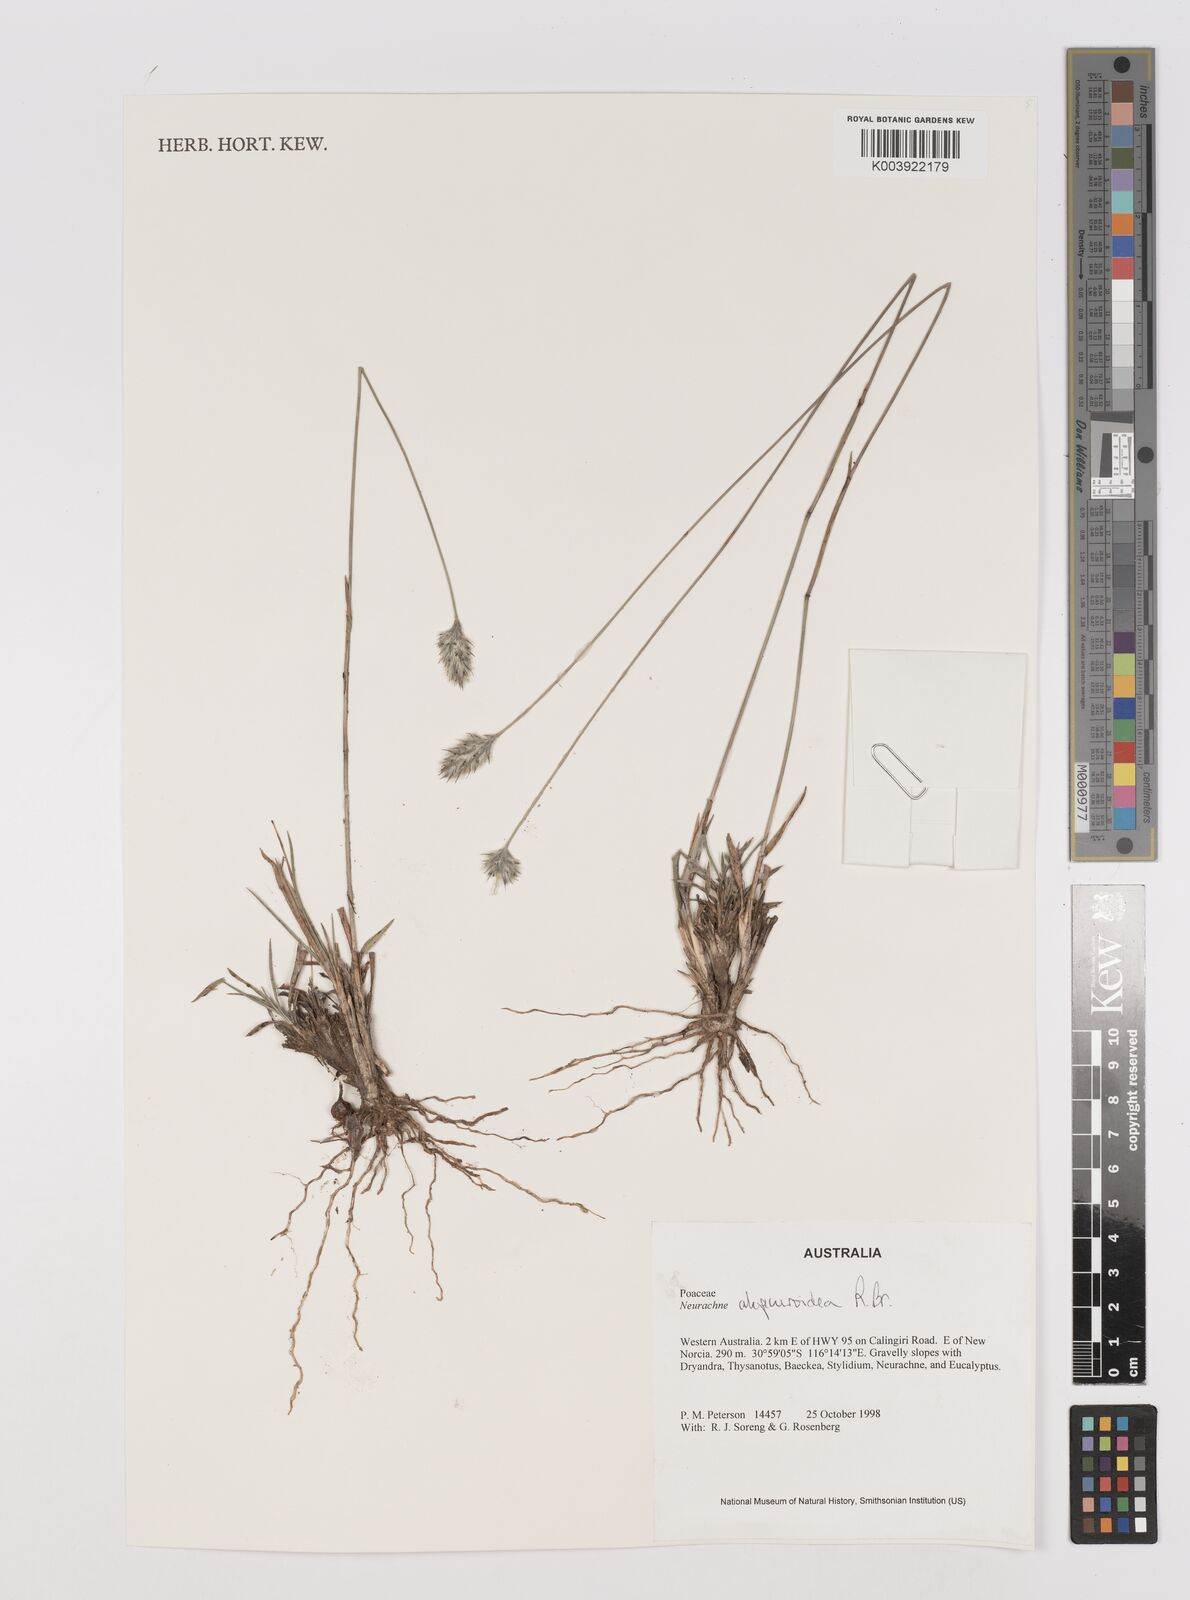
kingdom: Plantae
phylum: Tracheophyta
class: Liliopsida
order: Poales
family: Poaceae
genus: Neurachne
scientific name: Neurachne alopecuroidea
